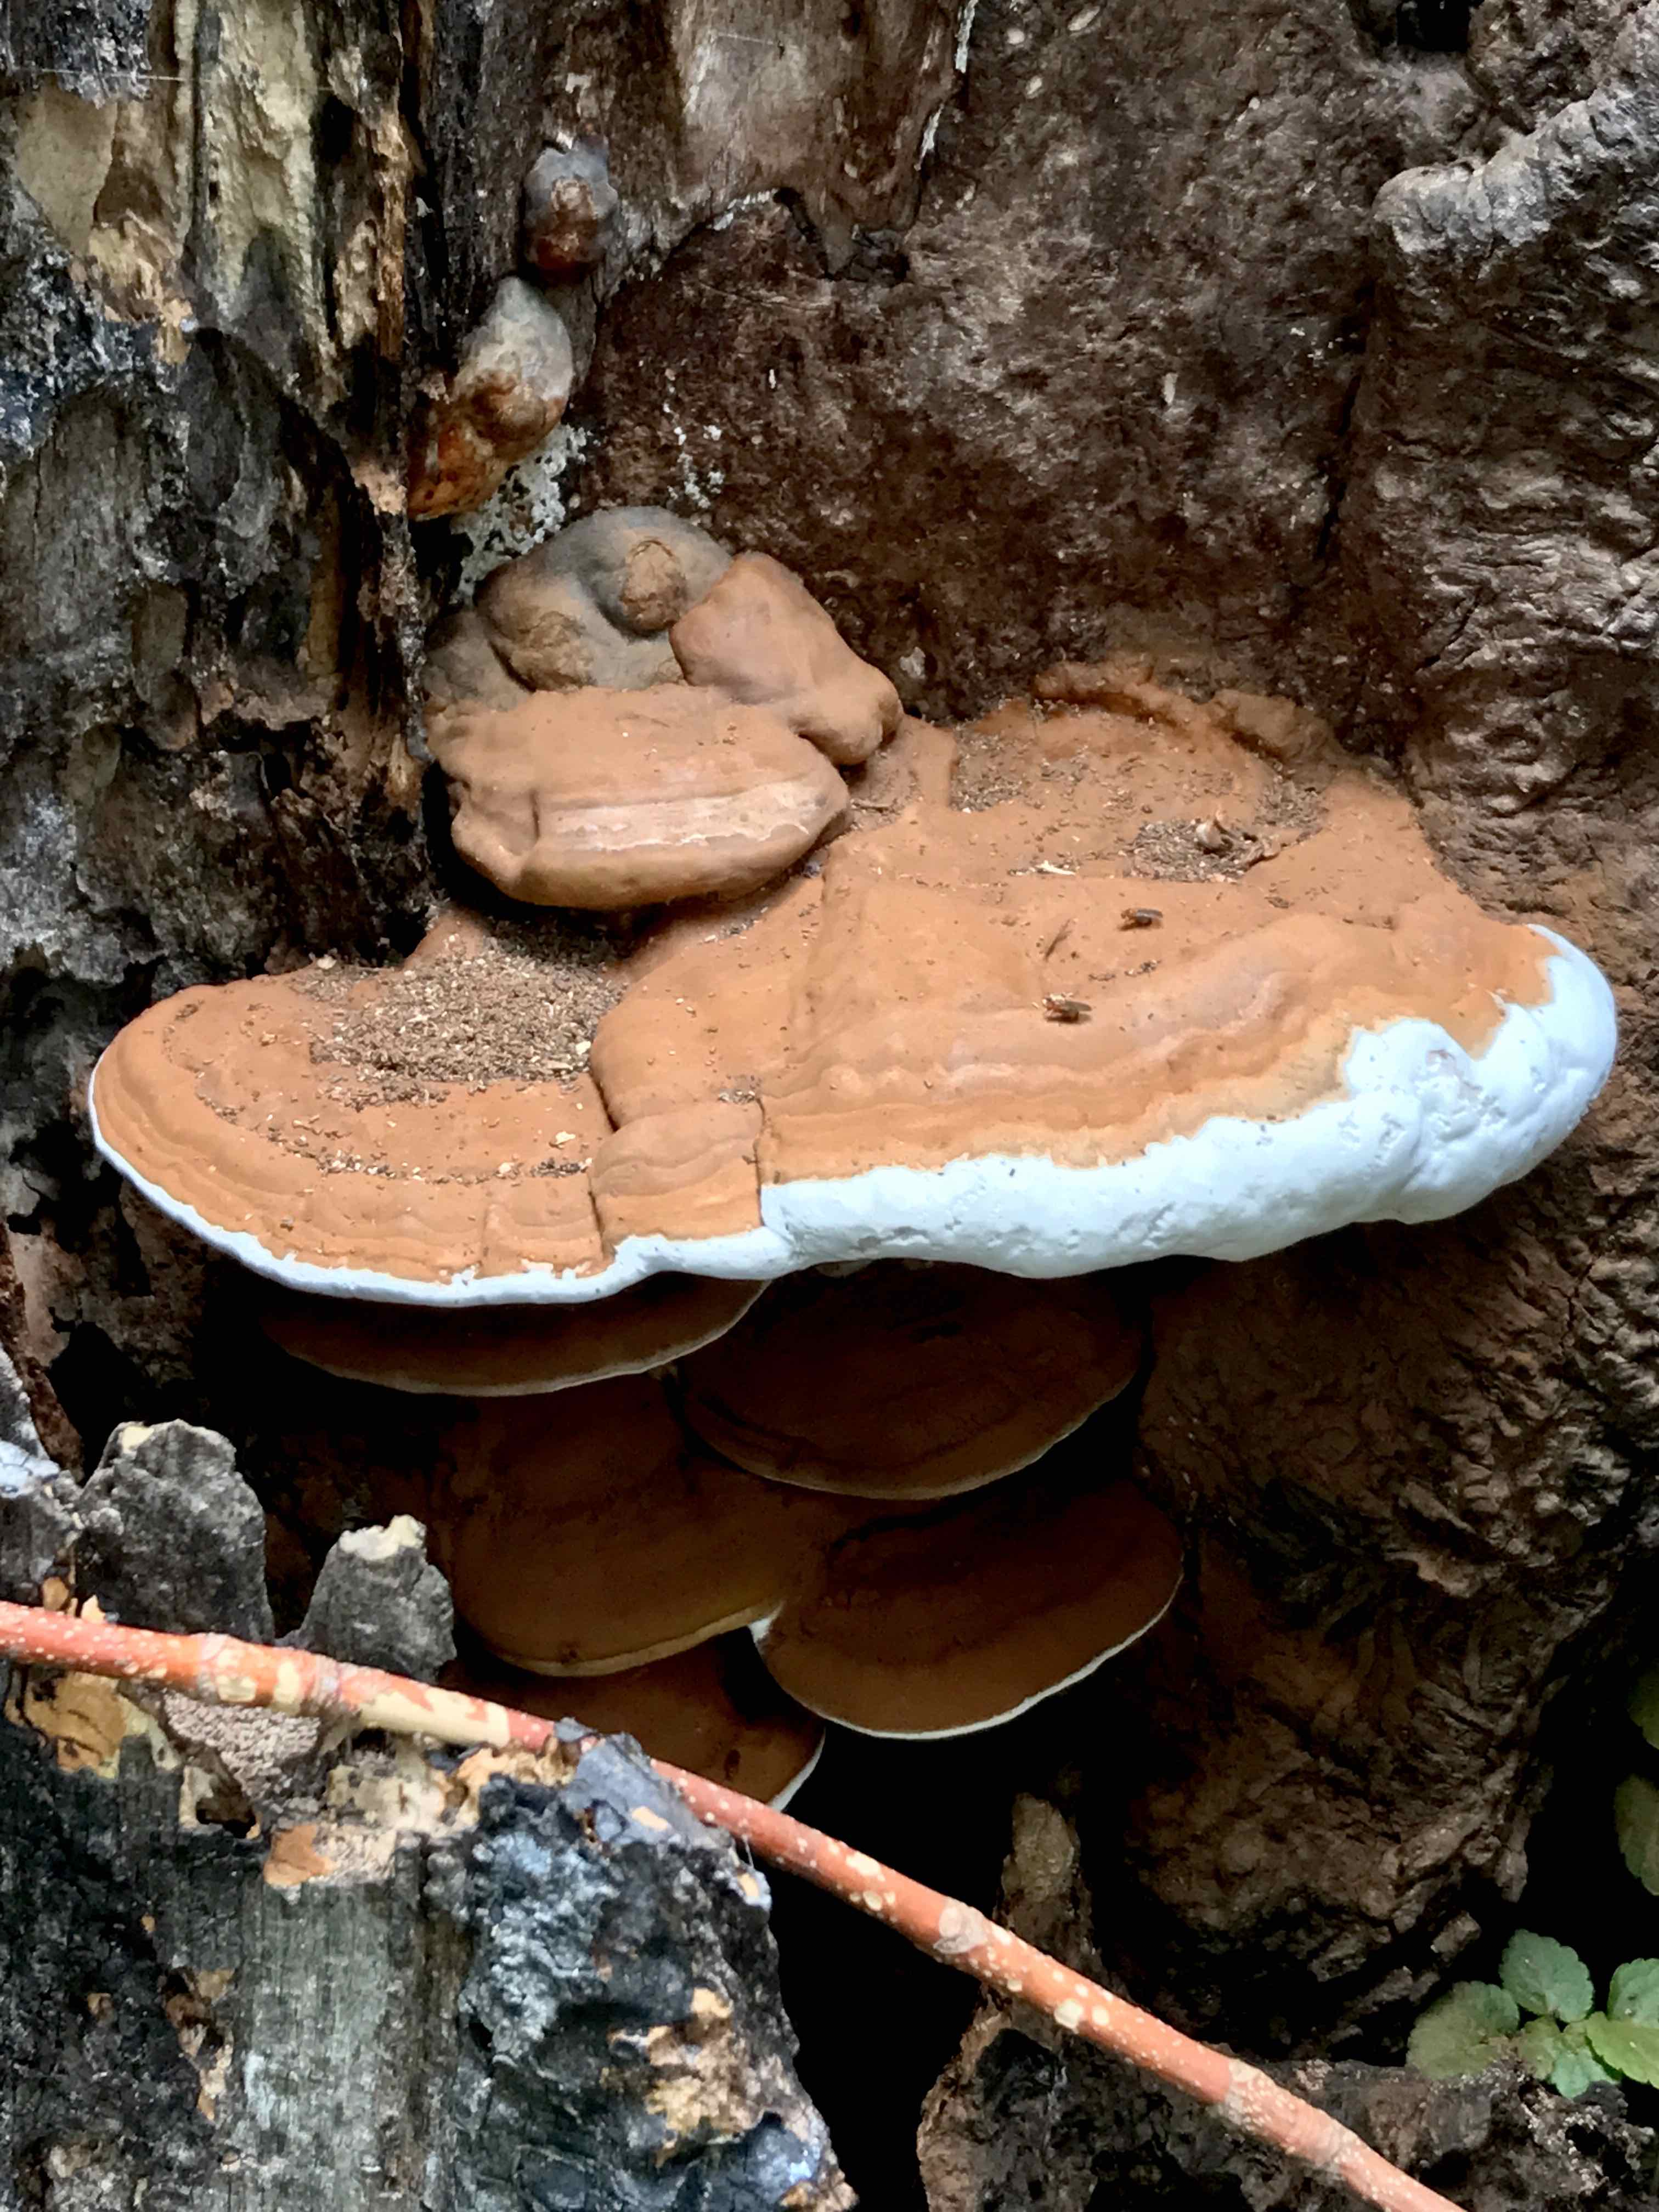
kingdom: Fungi
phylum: Basidiomycota
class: Agaricomycetes
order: Polyporales
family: Polyporaceae
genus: Ganoderma
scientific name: Ganoderma pfeifferi
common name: kobberrød lakporesvamp
